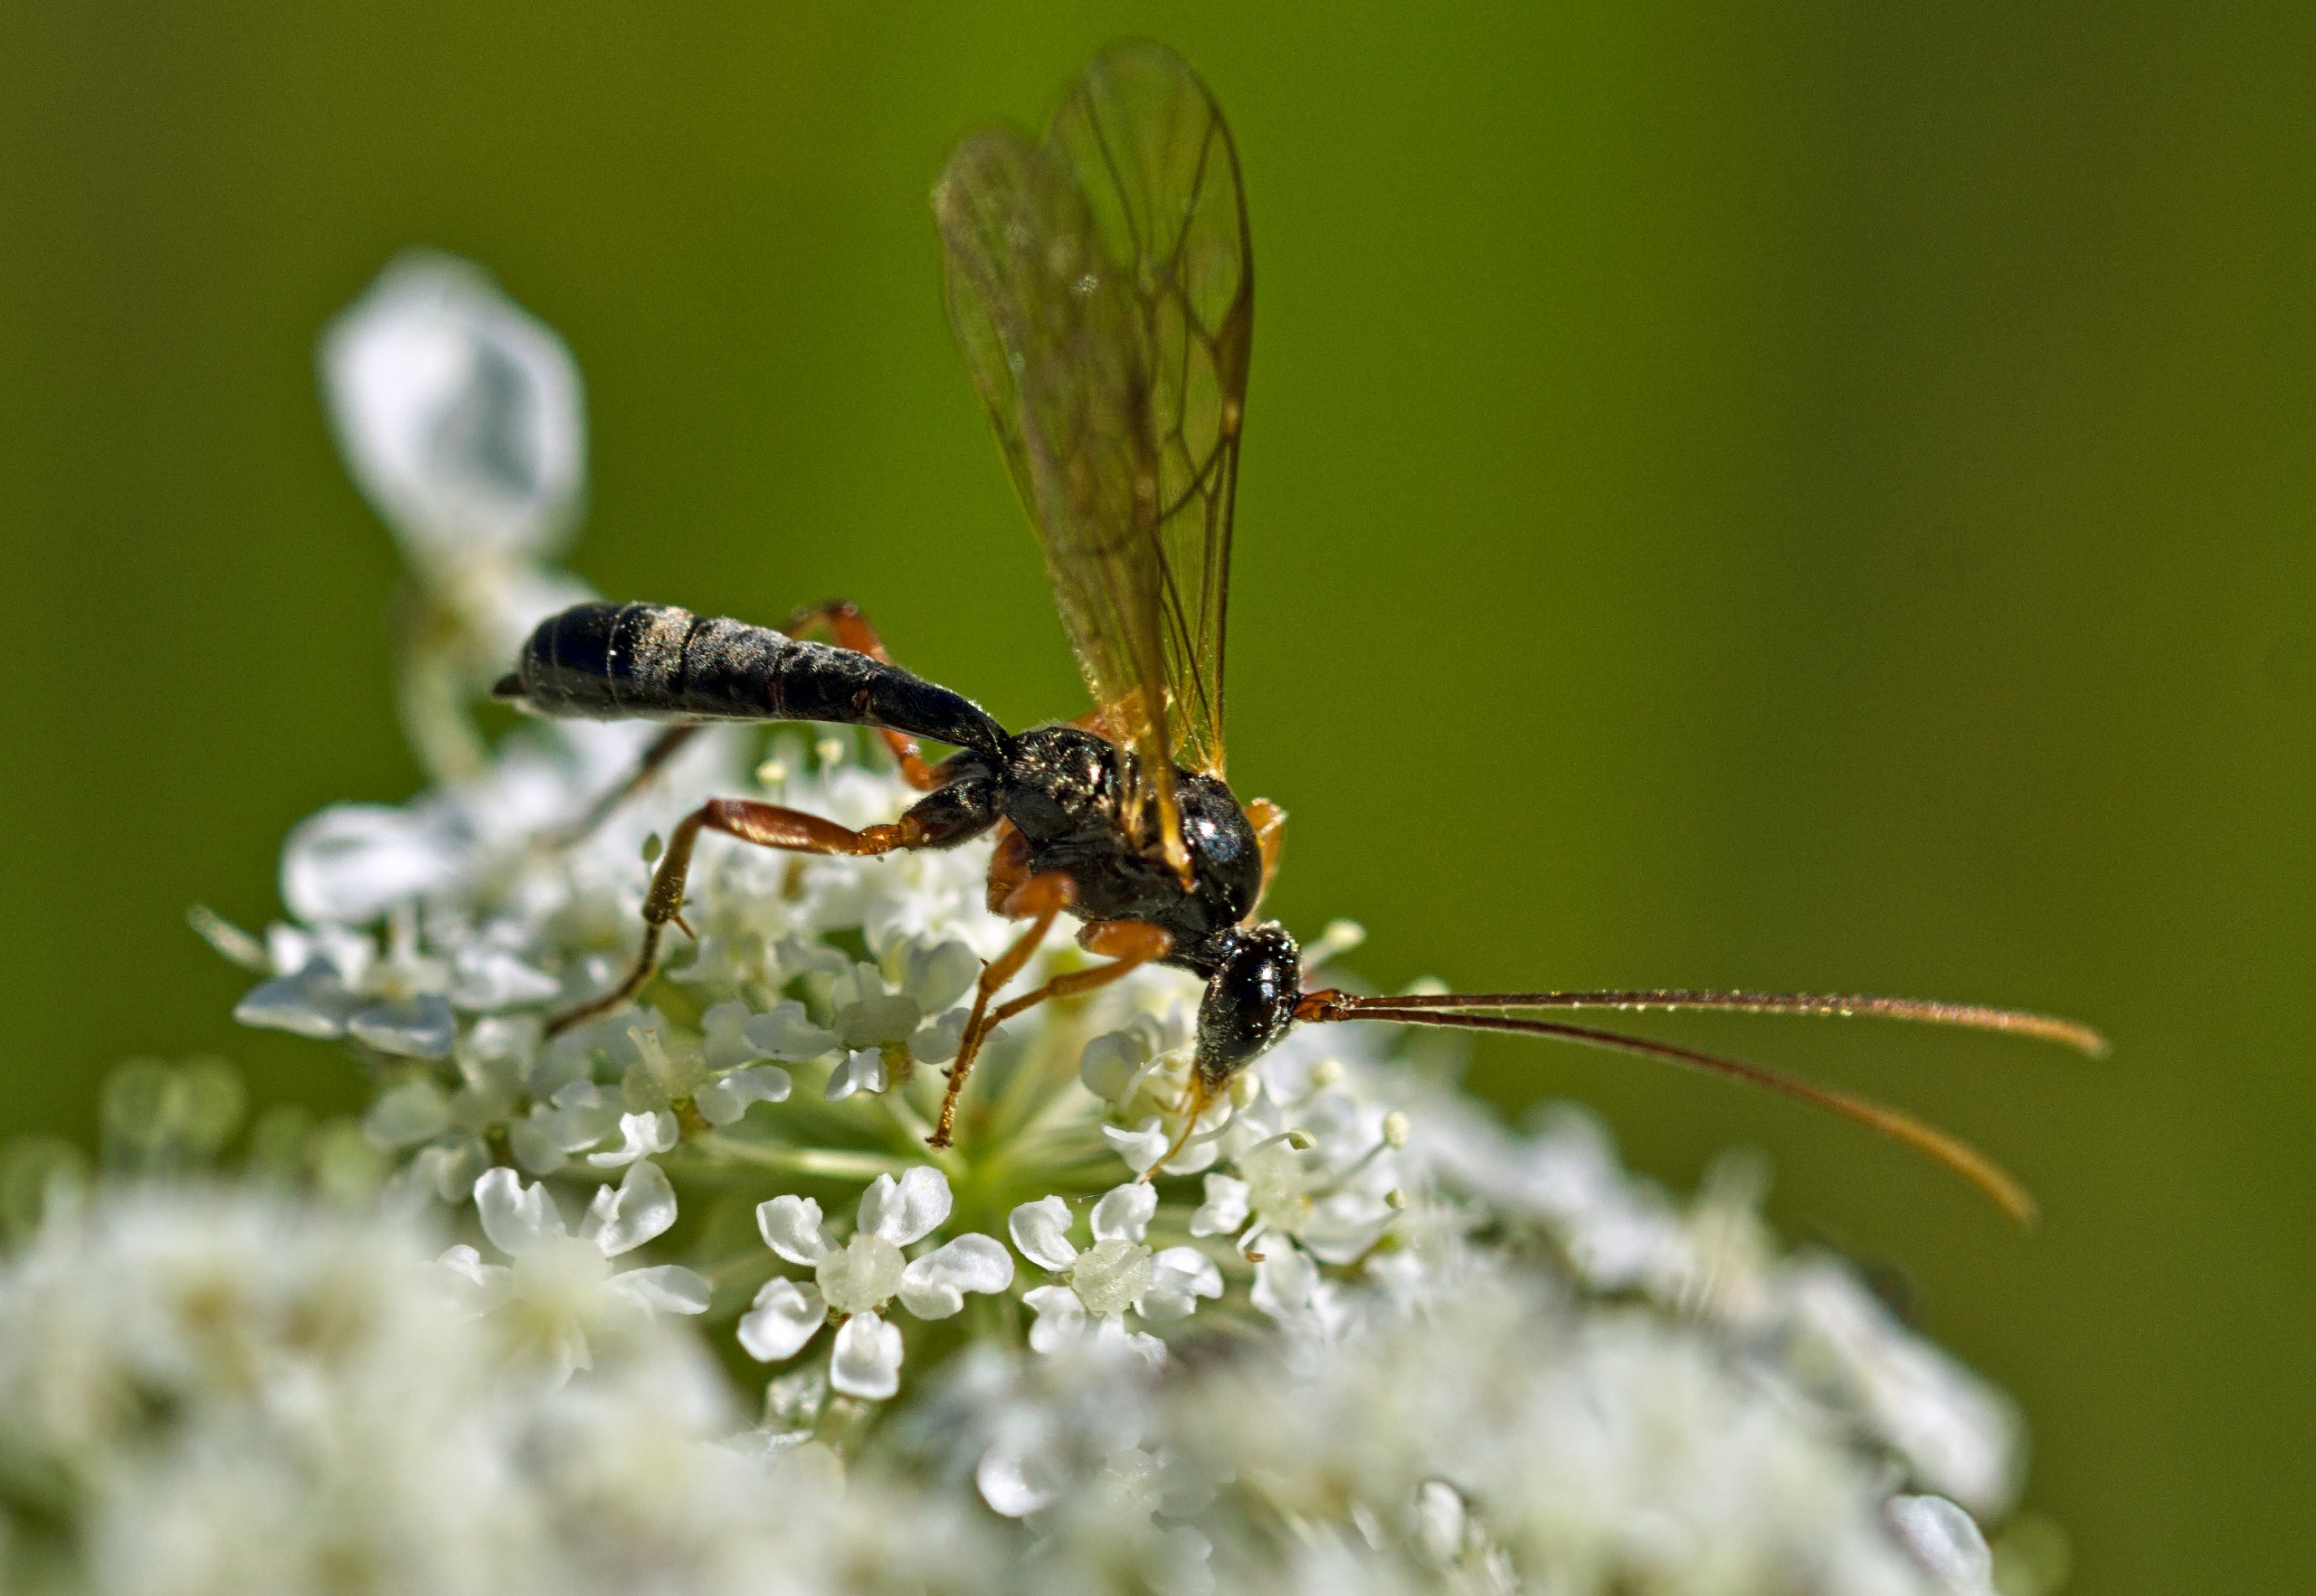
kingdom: Animalia
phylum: Arthropoda
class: Insecta
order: Hymenoptera
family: Ichneumonidae
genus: Dyspetes
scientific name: Dyspetes luteomarginatus
